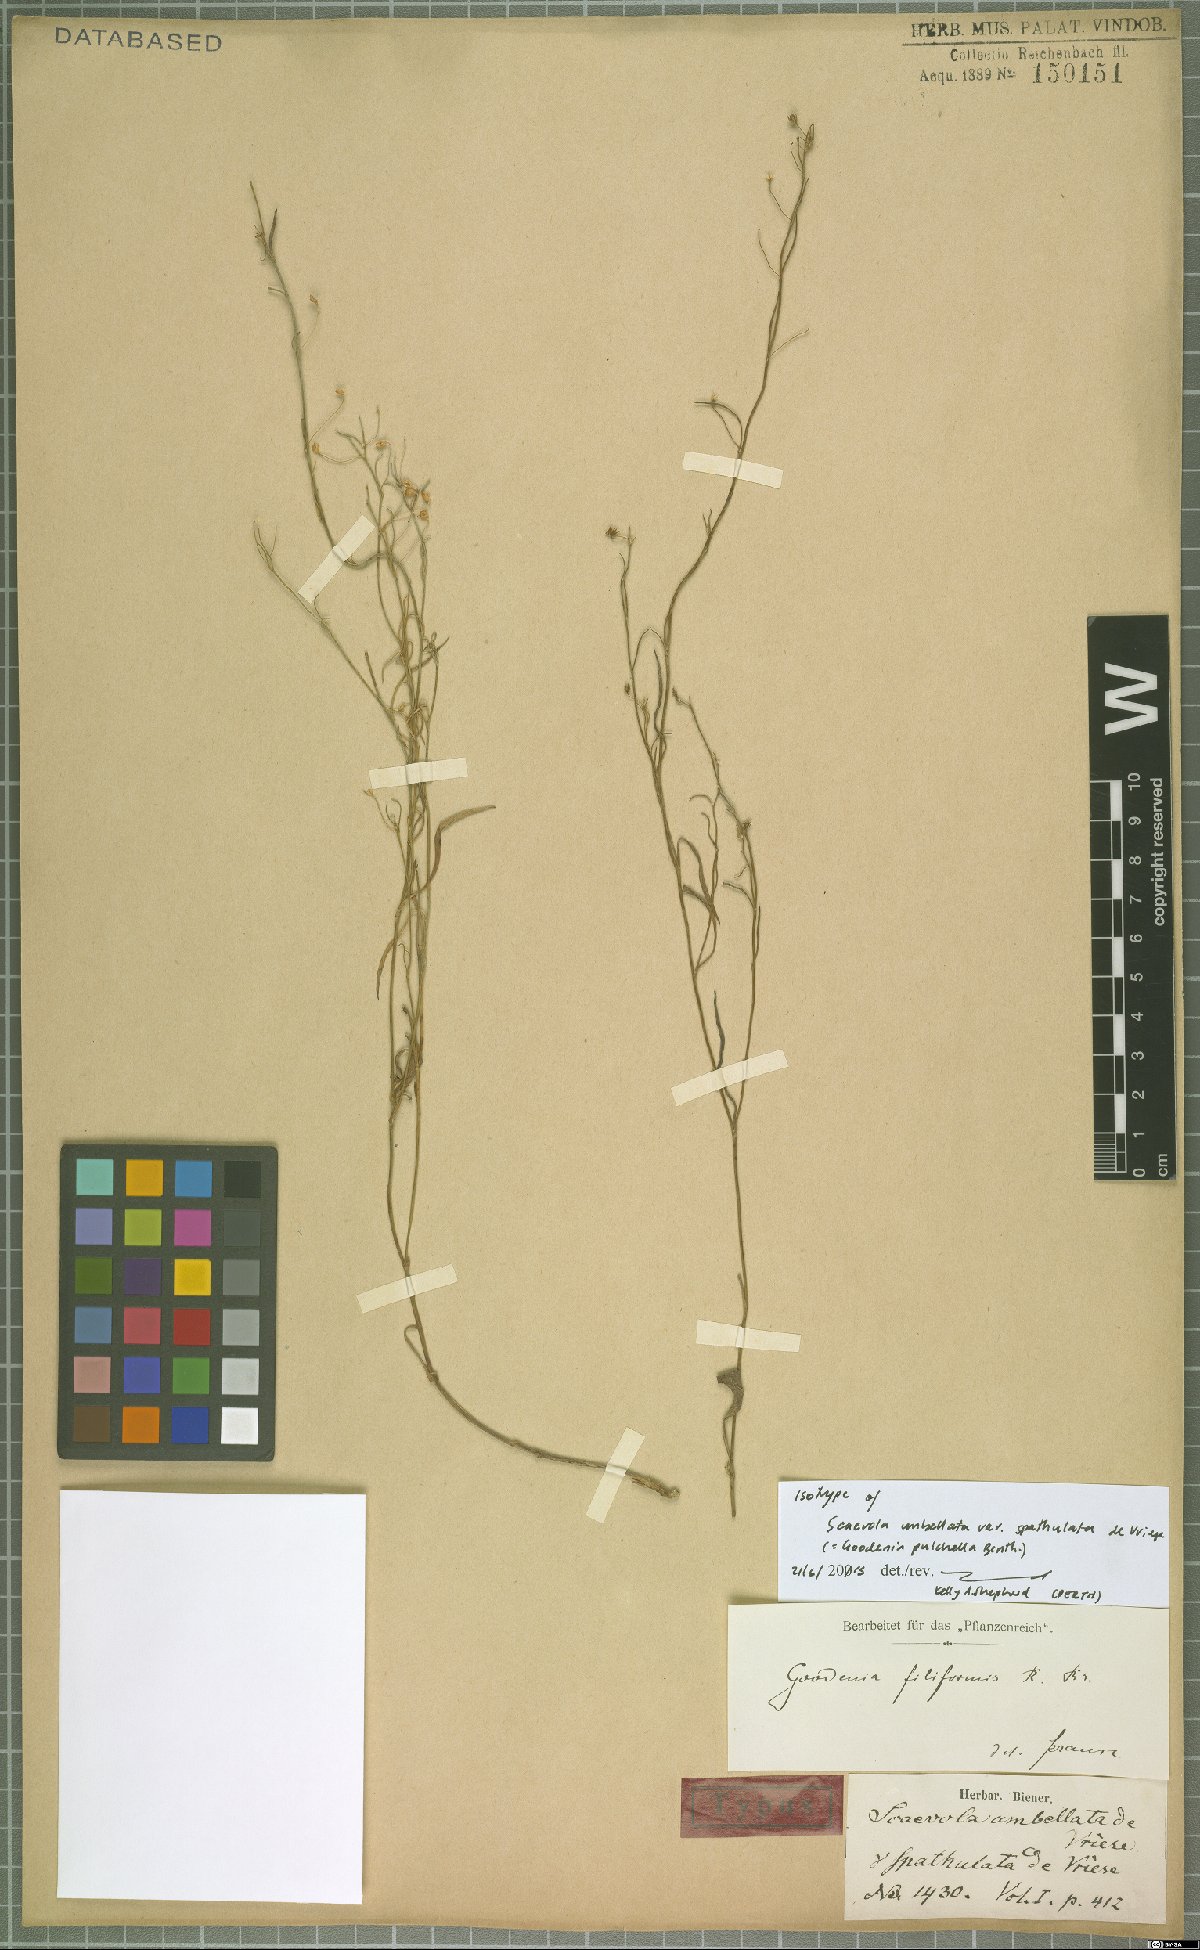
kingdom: Plantae
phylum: Tracheophyta
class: Magnoliopsida
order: Asterales
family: Goodeniaceae
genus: Goodenia
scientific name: Goodenia pulchella
